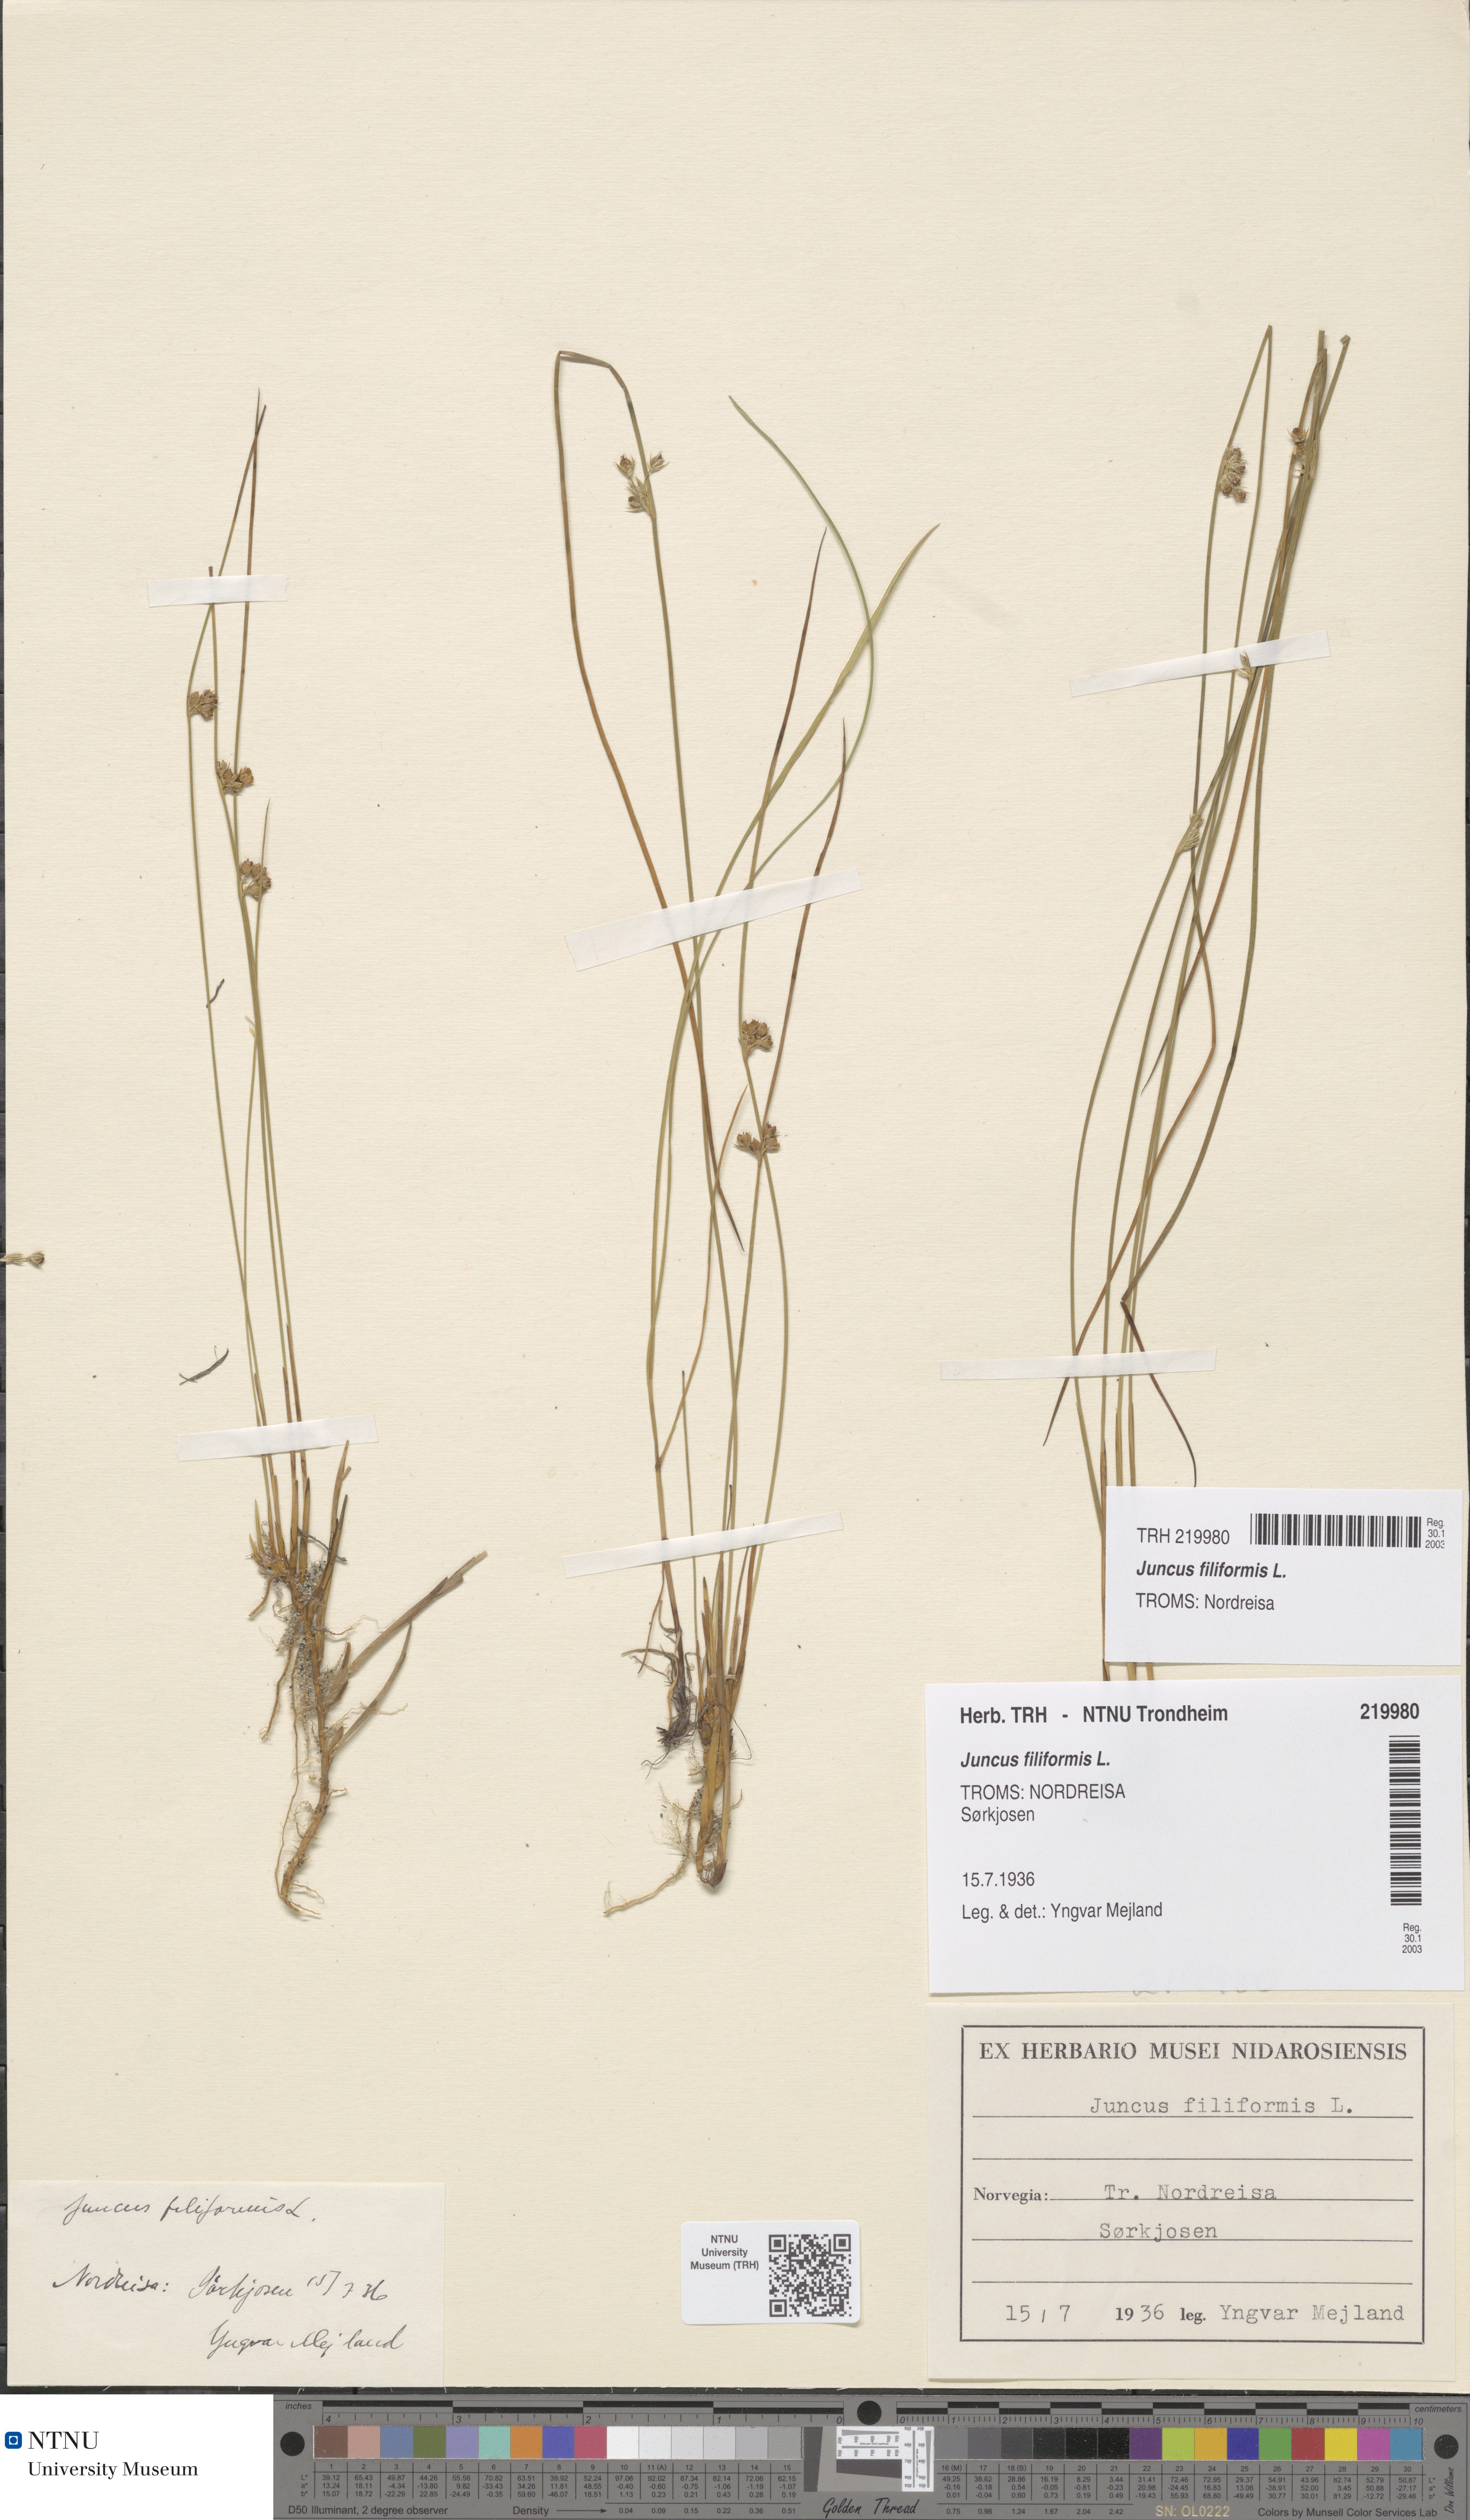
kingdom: Plantae
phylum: Tracheophyta
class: Liliopsida
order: Poales
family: Juncaceae
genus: Juncus
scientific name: Juncus filiformis
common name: Thread rush
